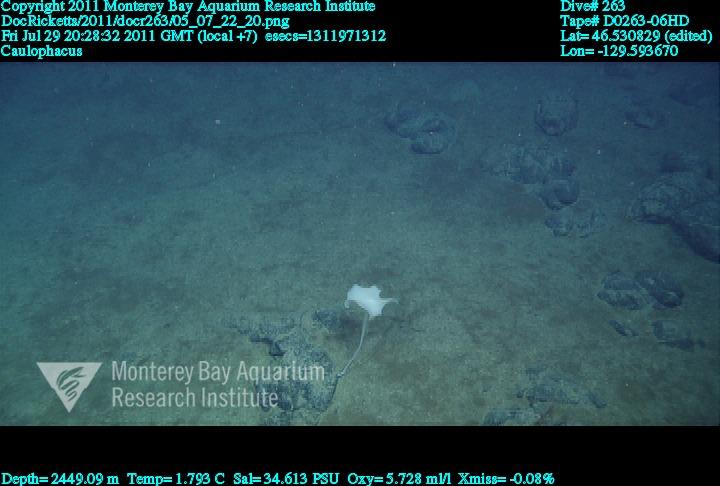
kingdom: Animalia
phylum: Porifera
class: Hexactinellida
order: Lyssacinosida
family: Rossellidae
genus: Caulophacus
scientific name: Caulophacus
